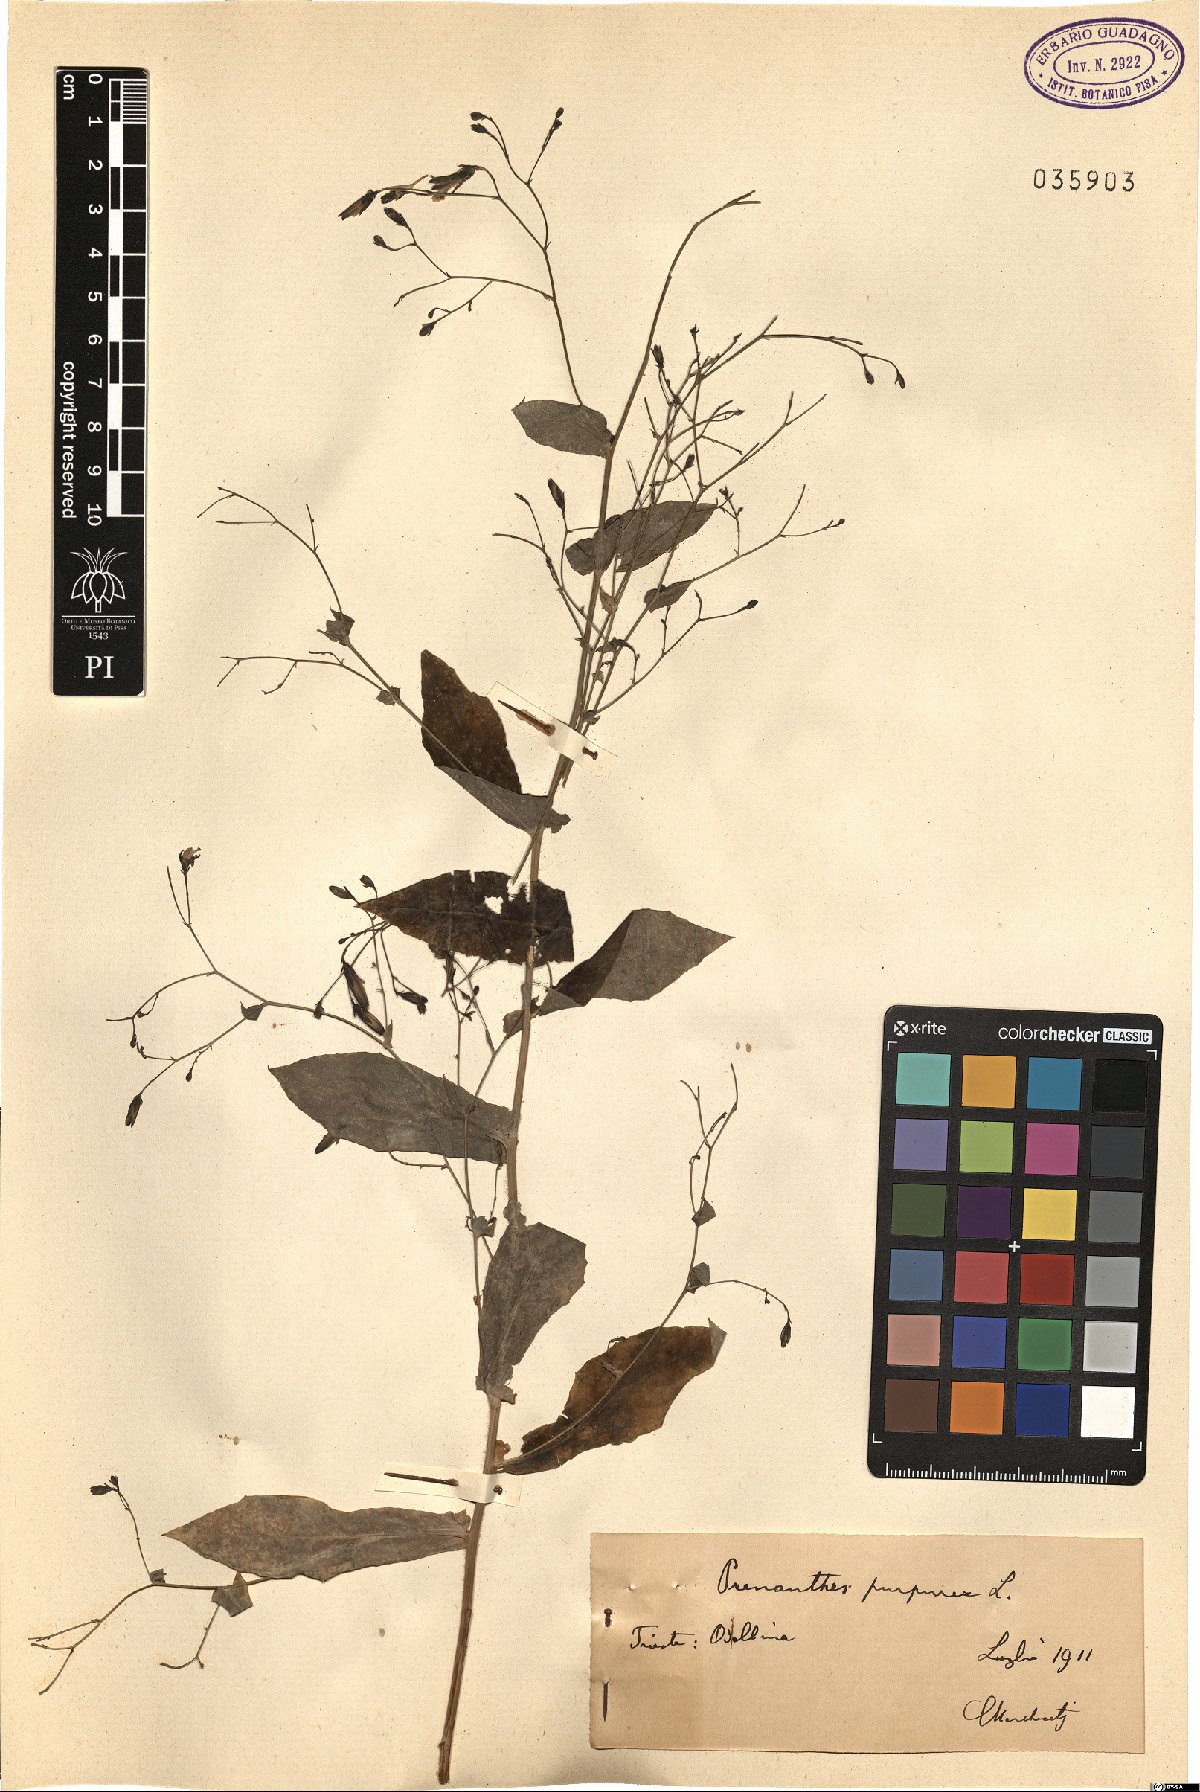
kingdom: Plantae
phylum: Tracheophyta
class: Magnoliopsida
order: Asterales
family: Asteraceae
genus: Prenanthes
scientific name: Prenanthes purpurea
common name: Purple lettuce
